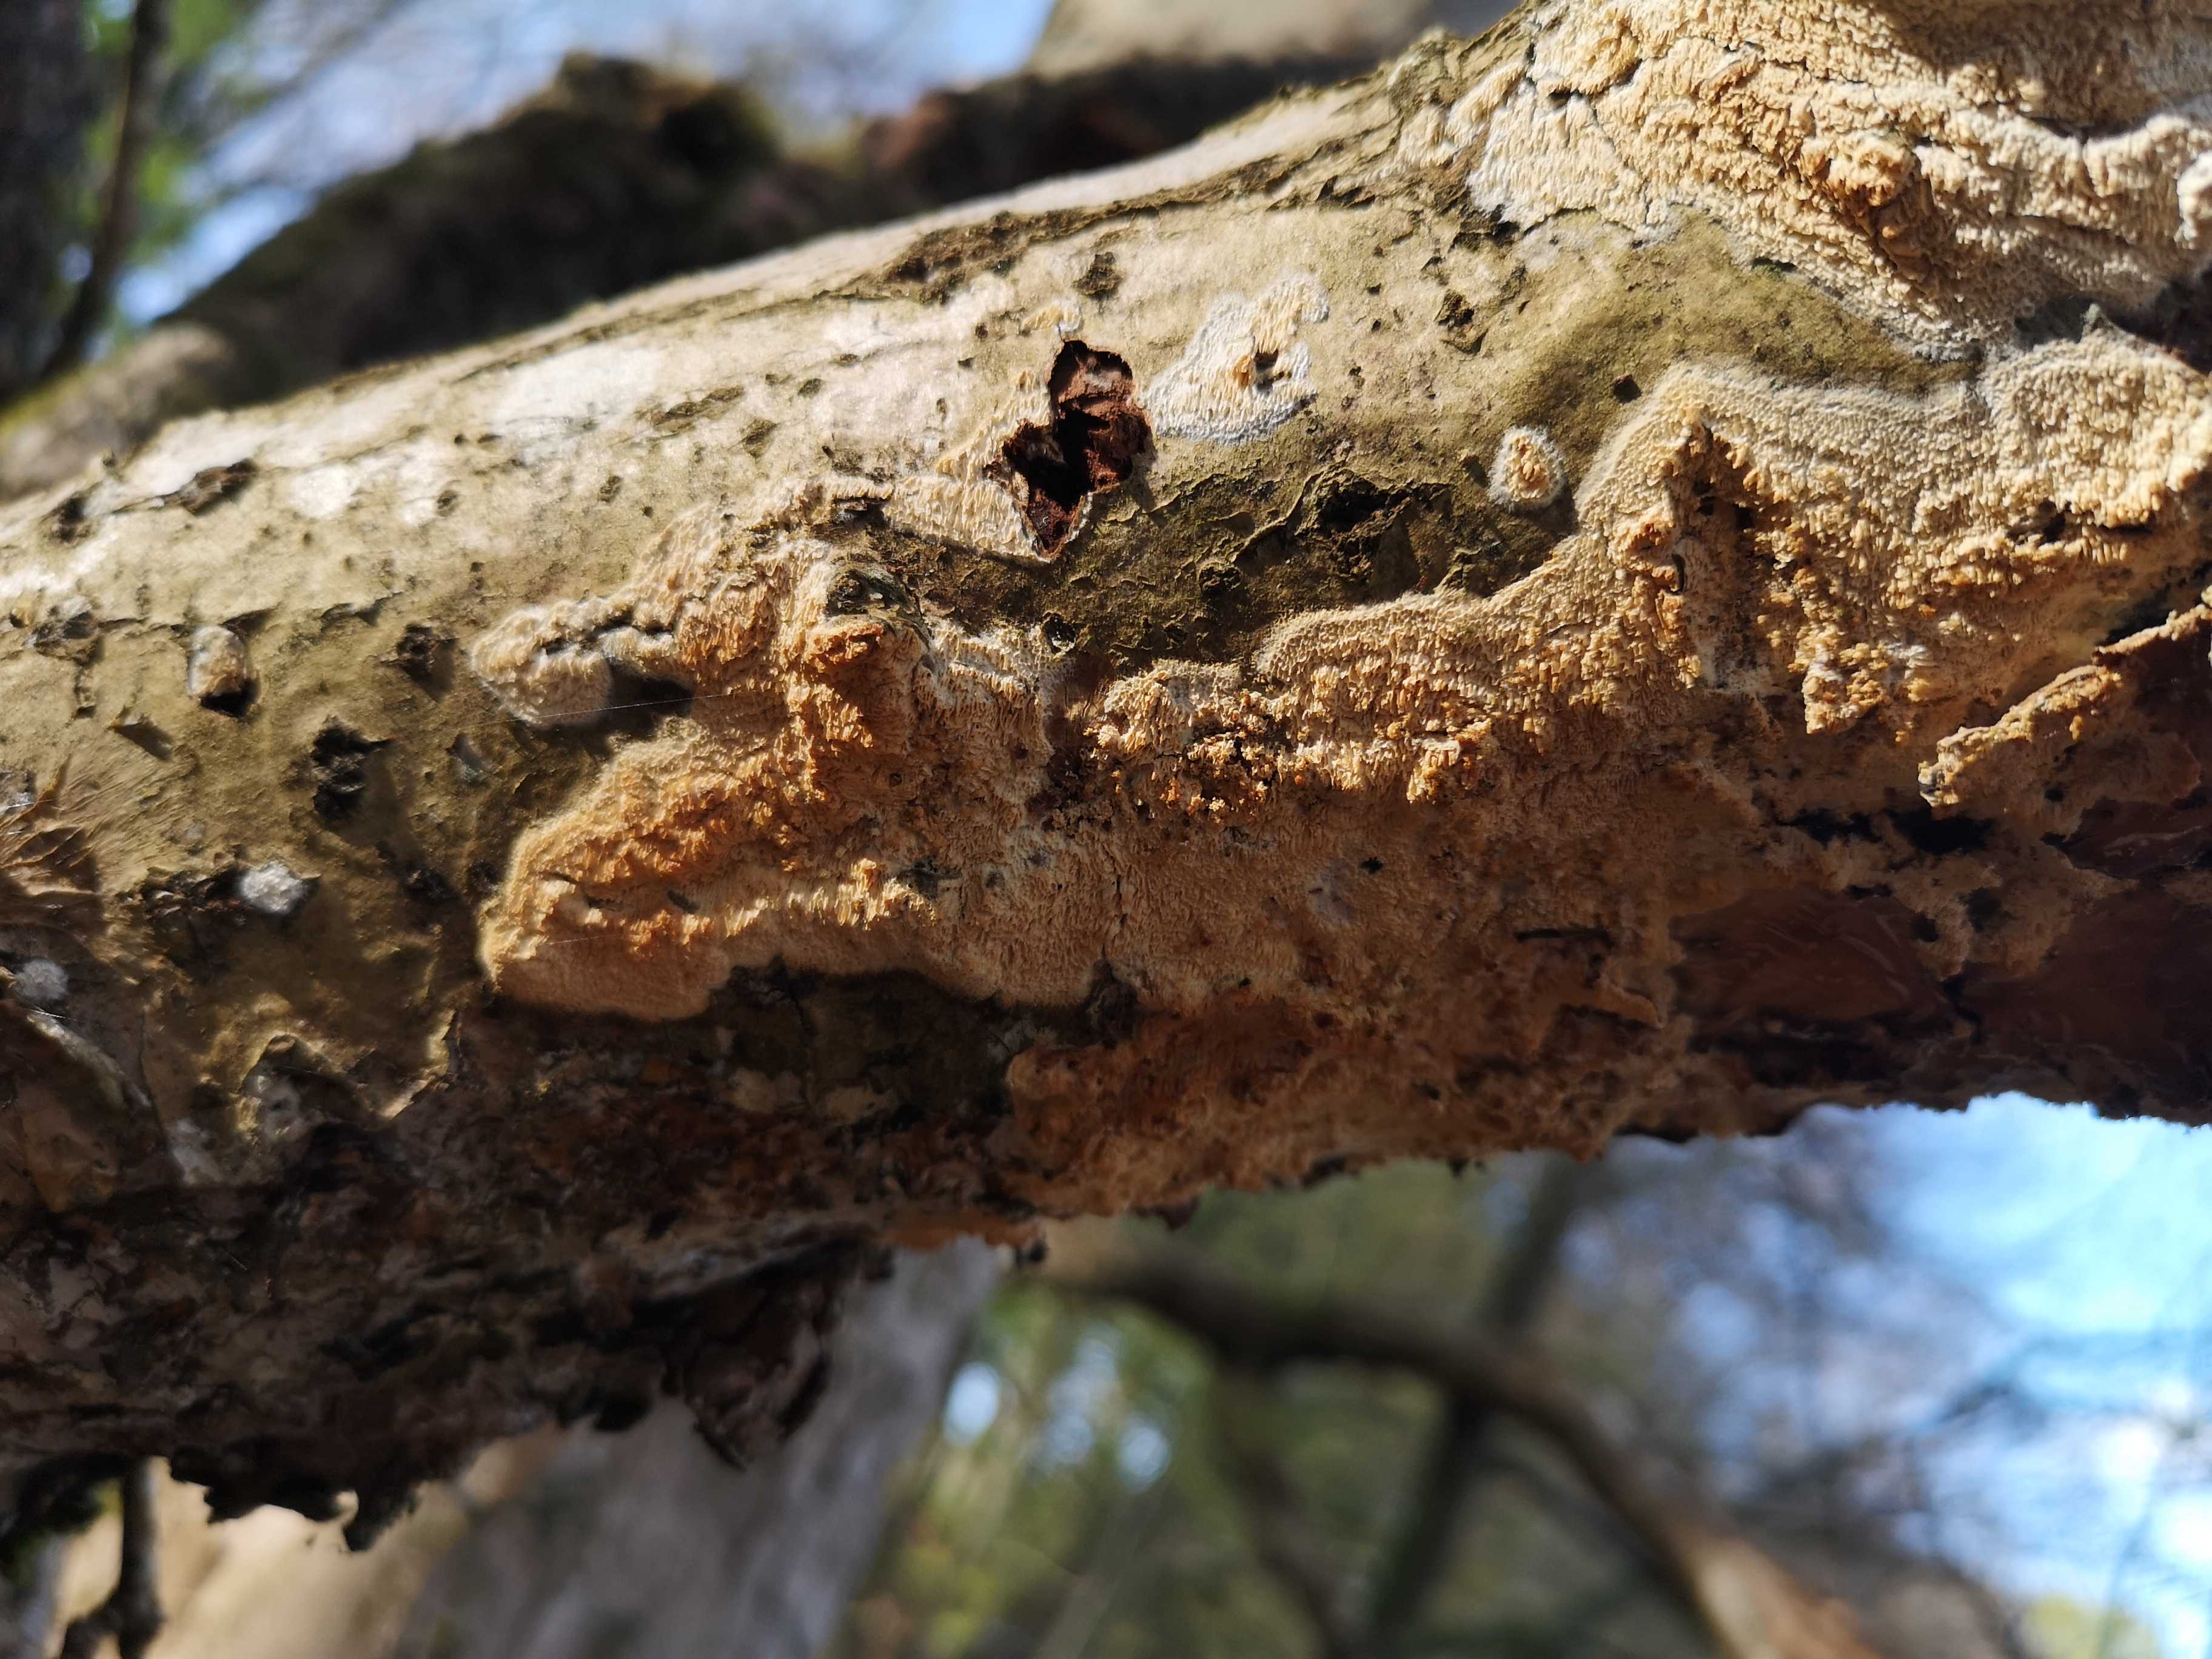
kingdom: Fungi
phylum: Basidiomycota
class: Agaricomycetes
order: Corticiales
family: Corticiaceae
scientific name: Corticiaceae
